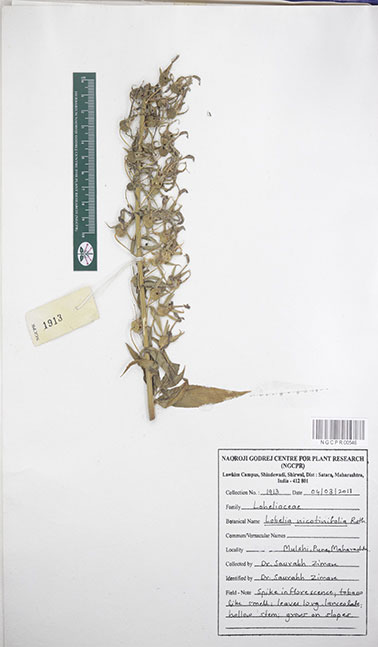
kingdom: Plantae
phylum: Tracheophyta
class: Magnoliopsida
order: Asterales
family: Campanulaceae
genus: Lobelia
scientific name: Lobelia nicotianifolia
